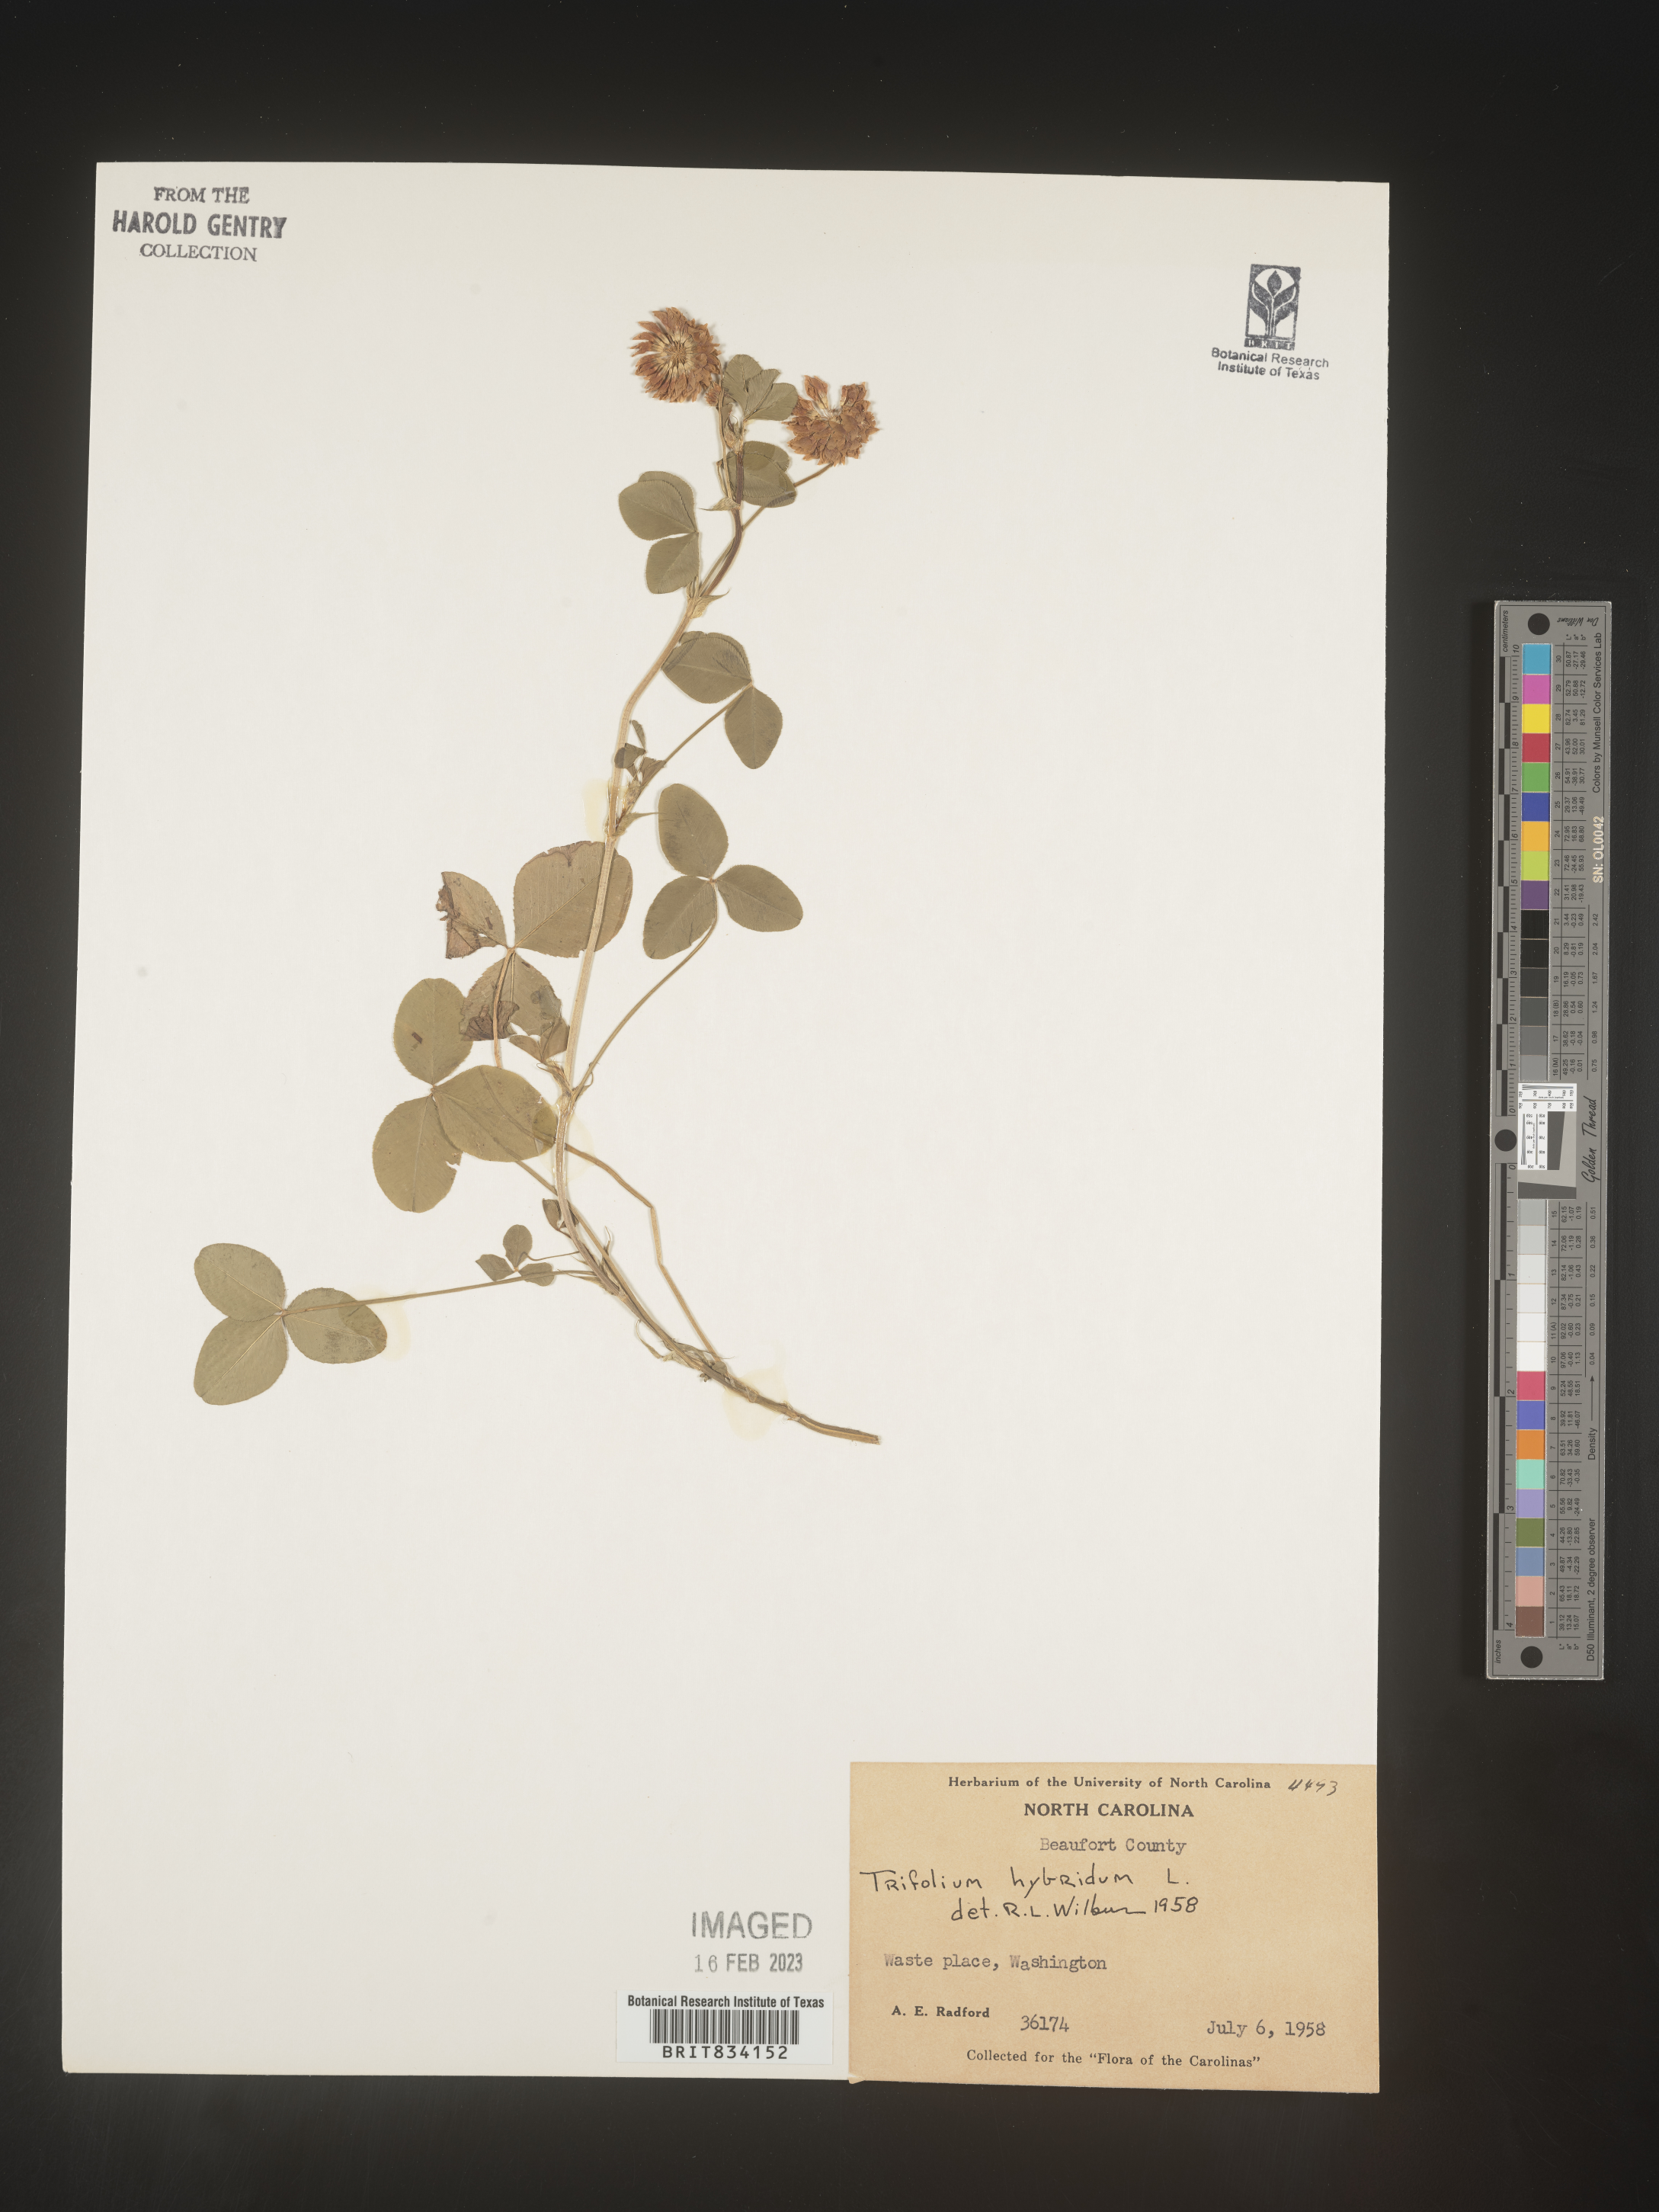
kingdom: Plantae
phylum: Tracheophyta
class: Magnoliopsida
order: Fabales
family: Fabaceae
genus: Trifolium
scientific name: Trifolium hybridum
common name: Alsike clover
